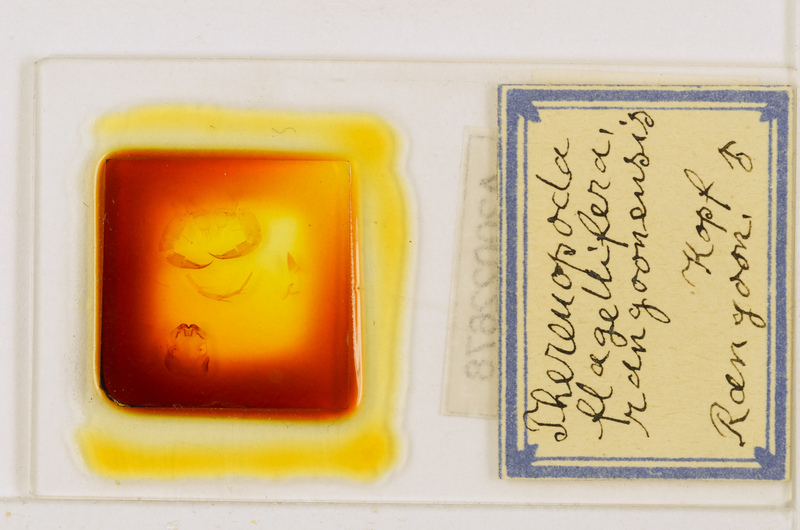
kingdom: Animalia
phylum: Arthropoda
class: Chilopoda
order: Scutigeromorpha
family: Scutigeridae
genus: Thereuopoda
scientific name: Thereuopoda longicornis
